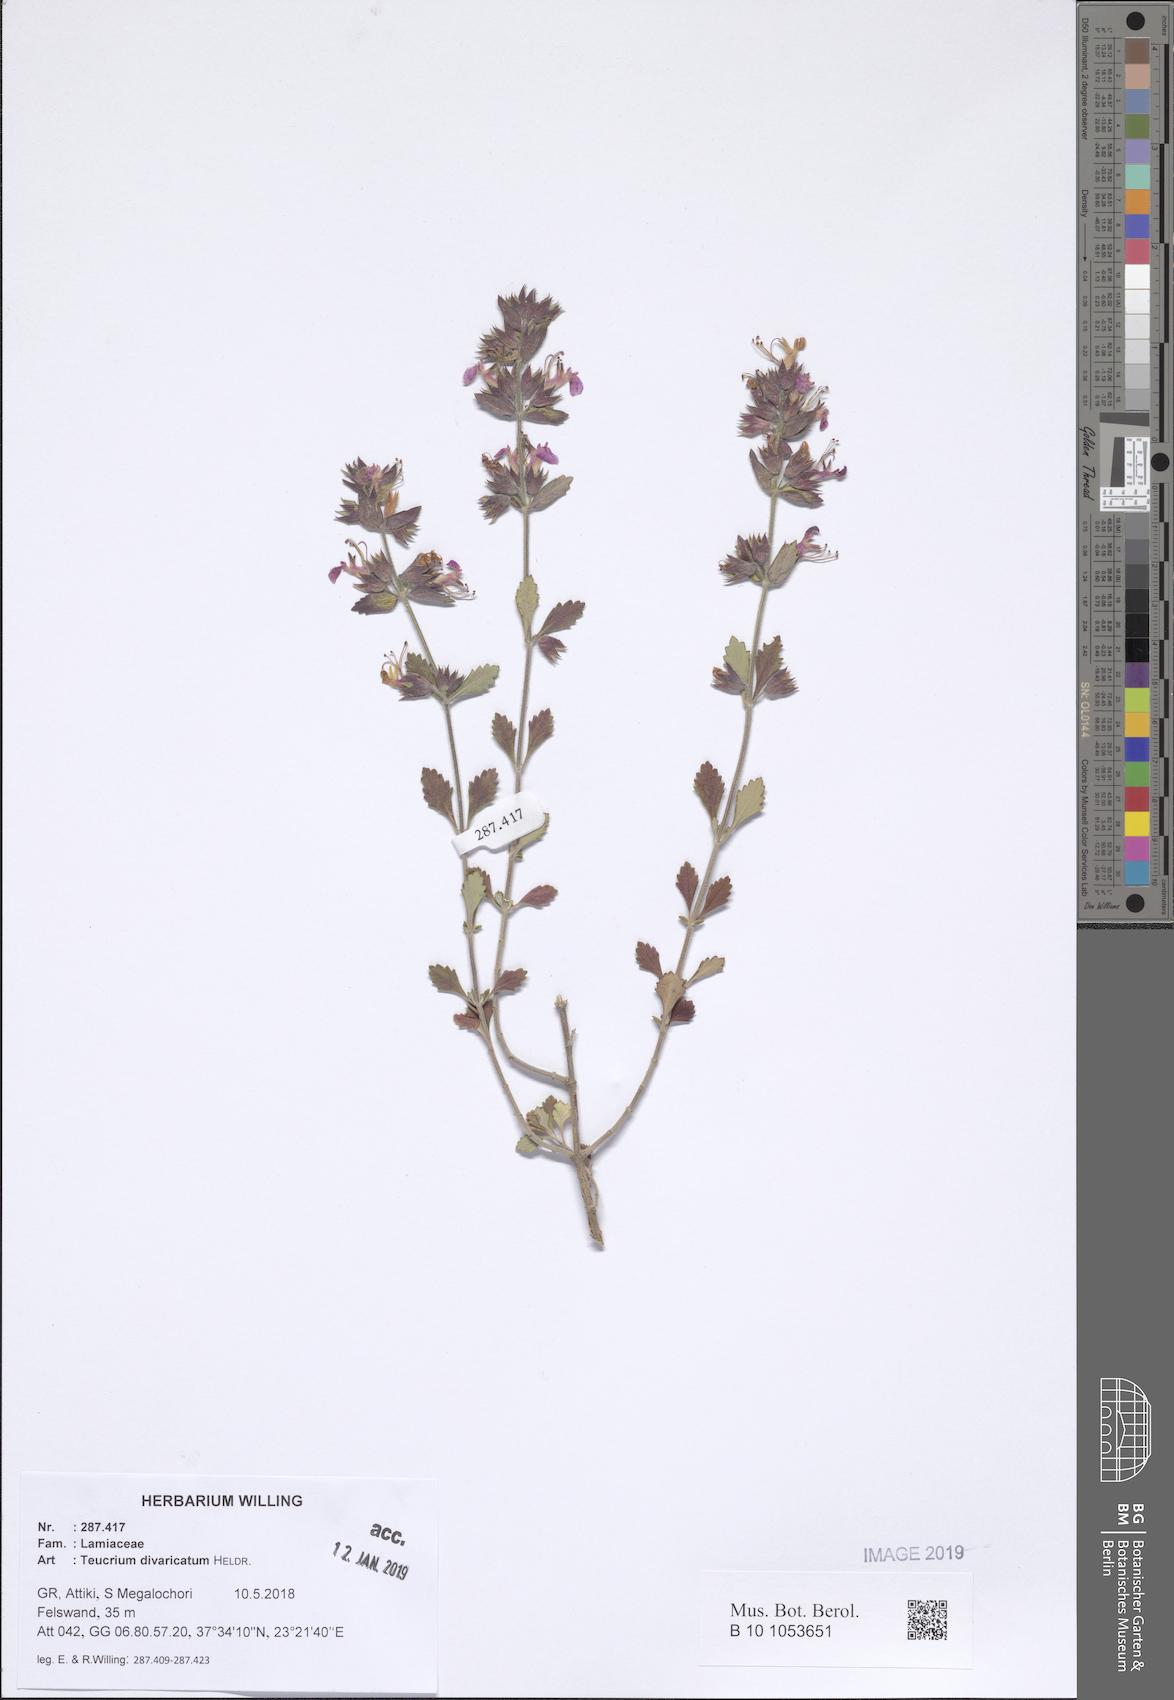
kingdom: Plantae
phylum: Tracheophyta
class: Magnoliopsida
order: Lamiales
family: Lamiaceae
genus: Teucrium
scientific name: Teucrium divaricatum
